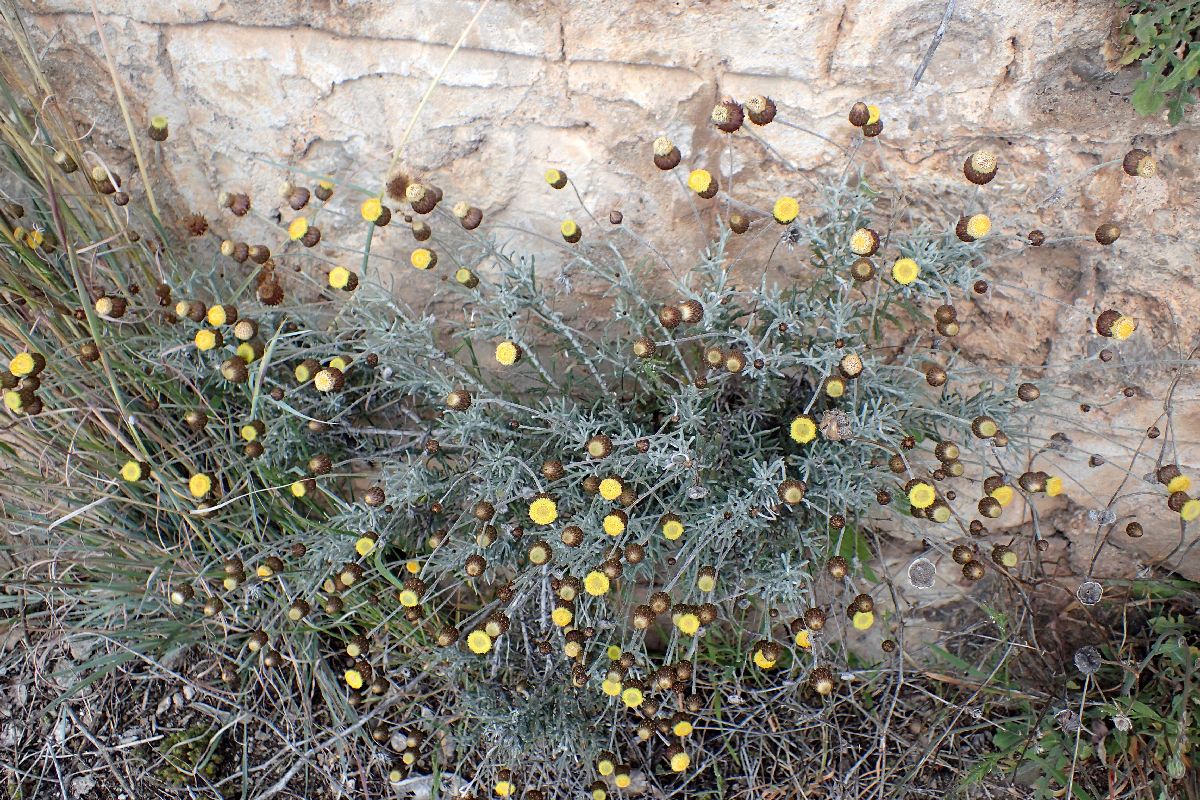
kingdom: Plantae
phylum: Tracheophyta
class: Magnoliopsida
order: Asterales
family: Asteraceae
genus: Phagnalon
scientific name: Phagnalon graecum
